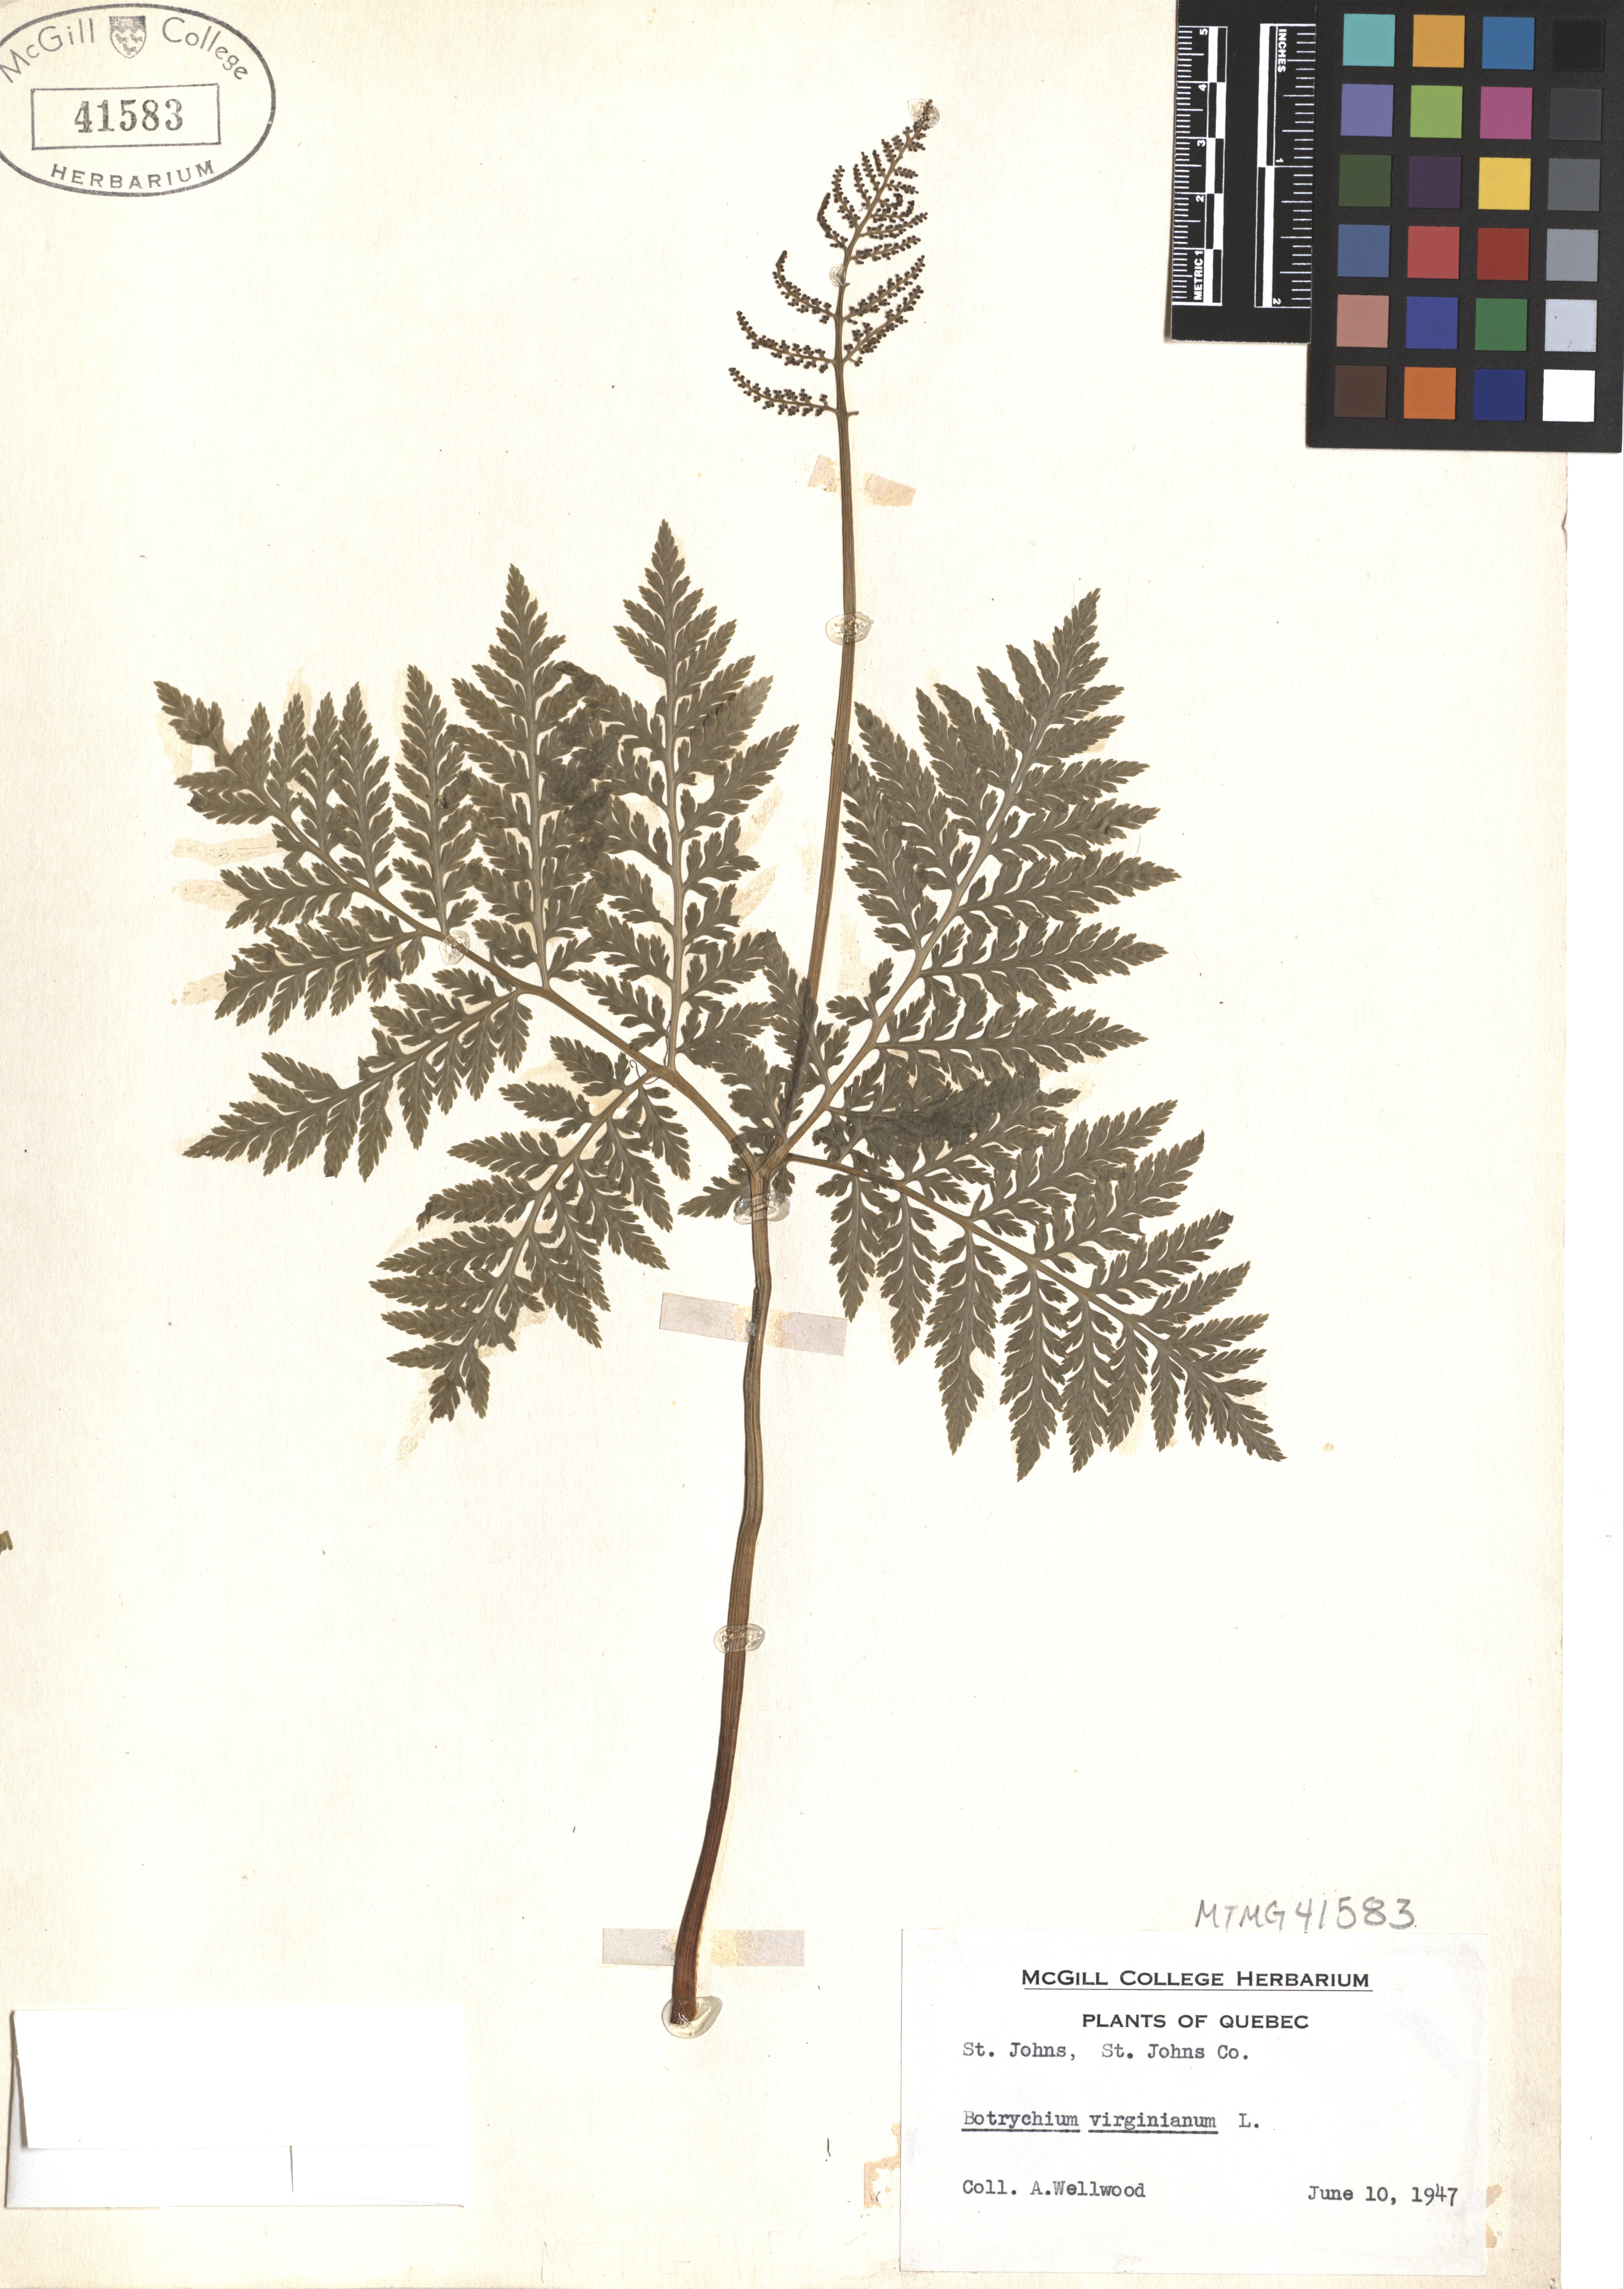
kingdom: Plantae
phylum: Tracheophyta
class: Polypodiopsida
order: Ophioglossales
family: Ophioglossaceae
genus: Botrypus
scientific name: Botrypus virginianus
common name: Common grapefern
